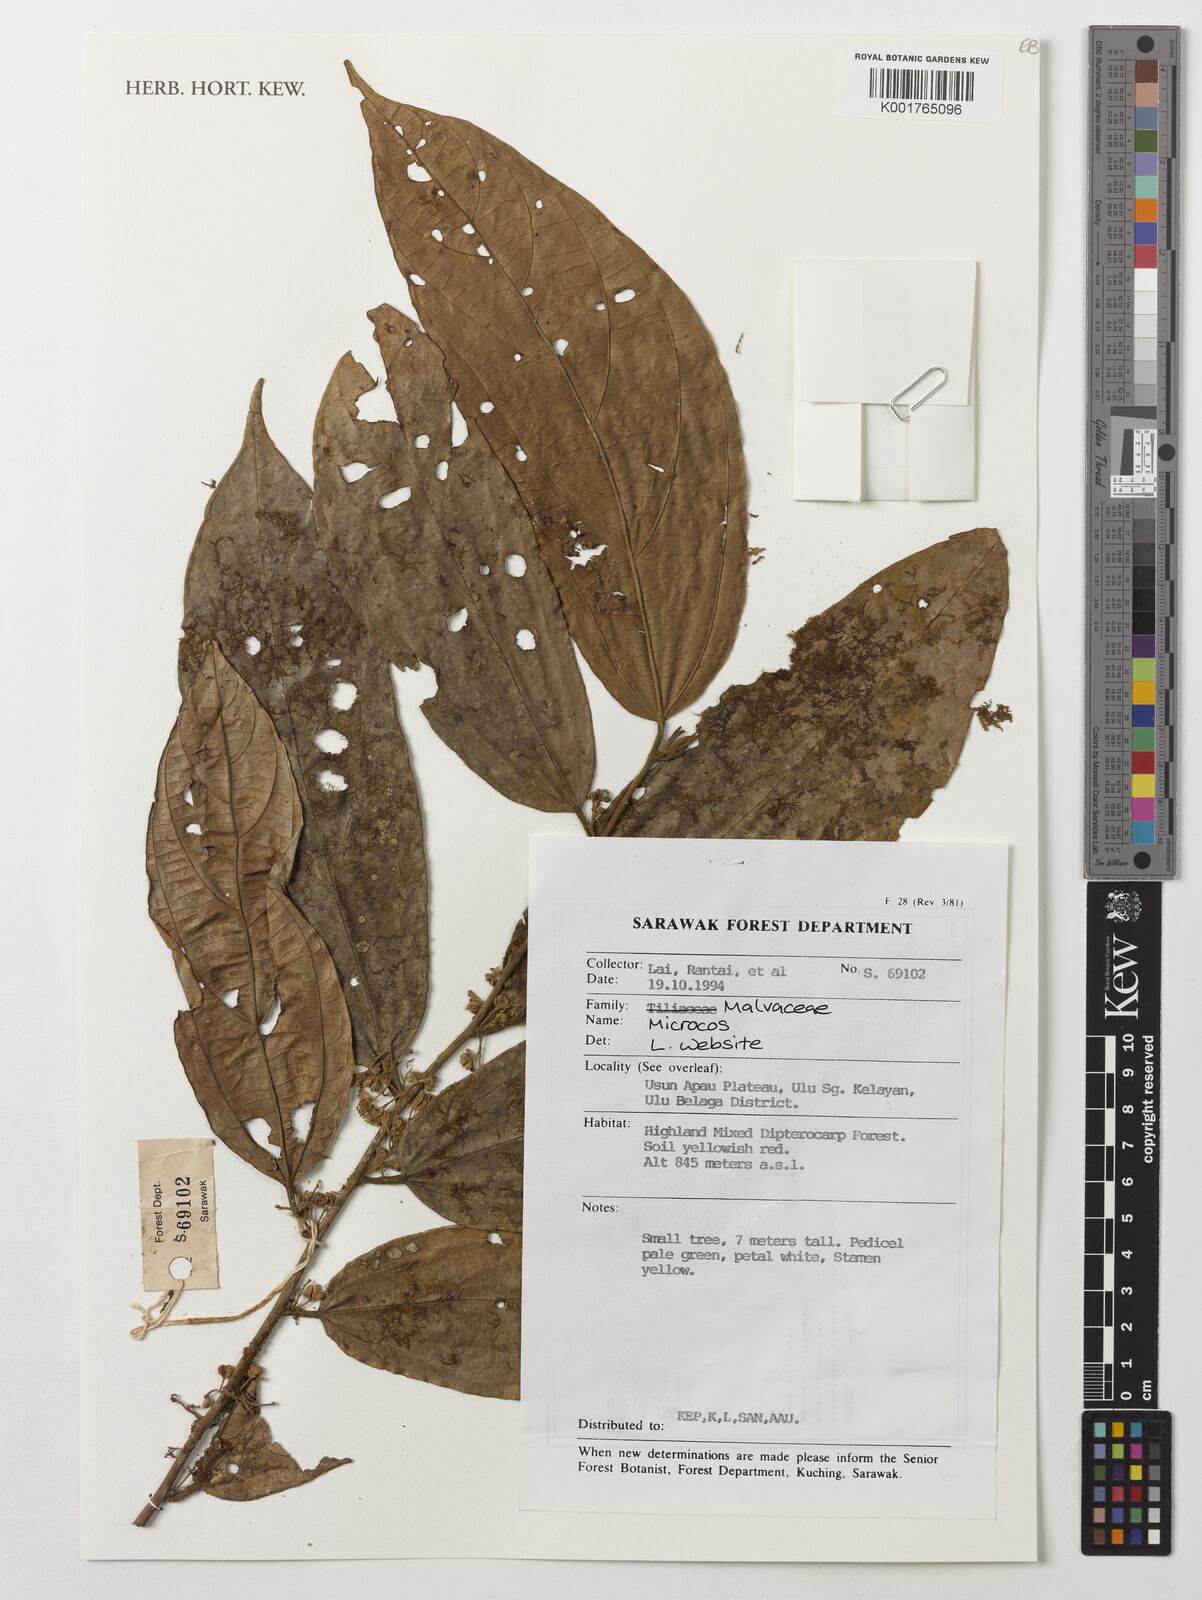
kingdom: Plantae
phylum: Tracheophyta
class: Magnoliopsida
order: Malvales
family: Malvaceae
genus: Microcos
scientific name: Microcos
